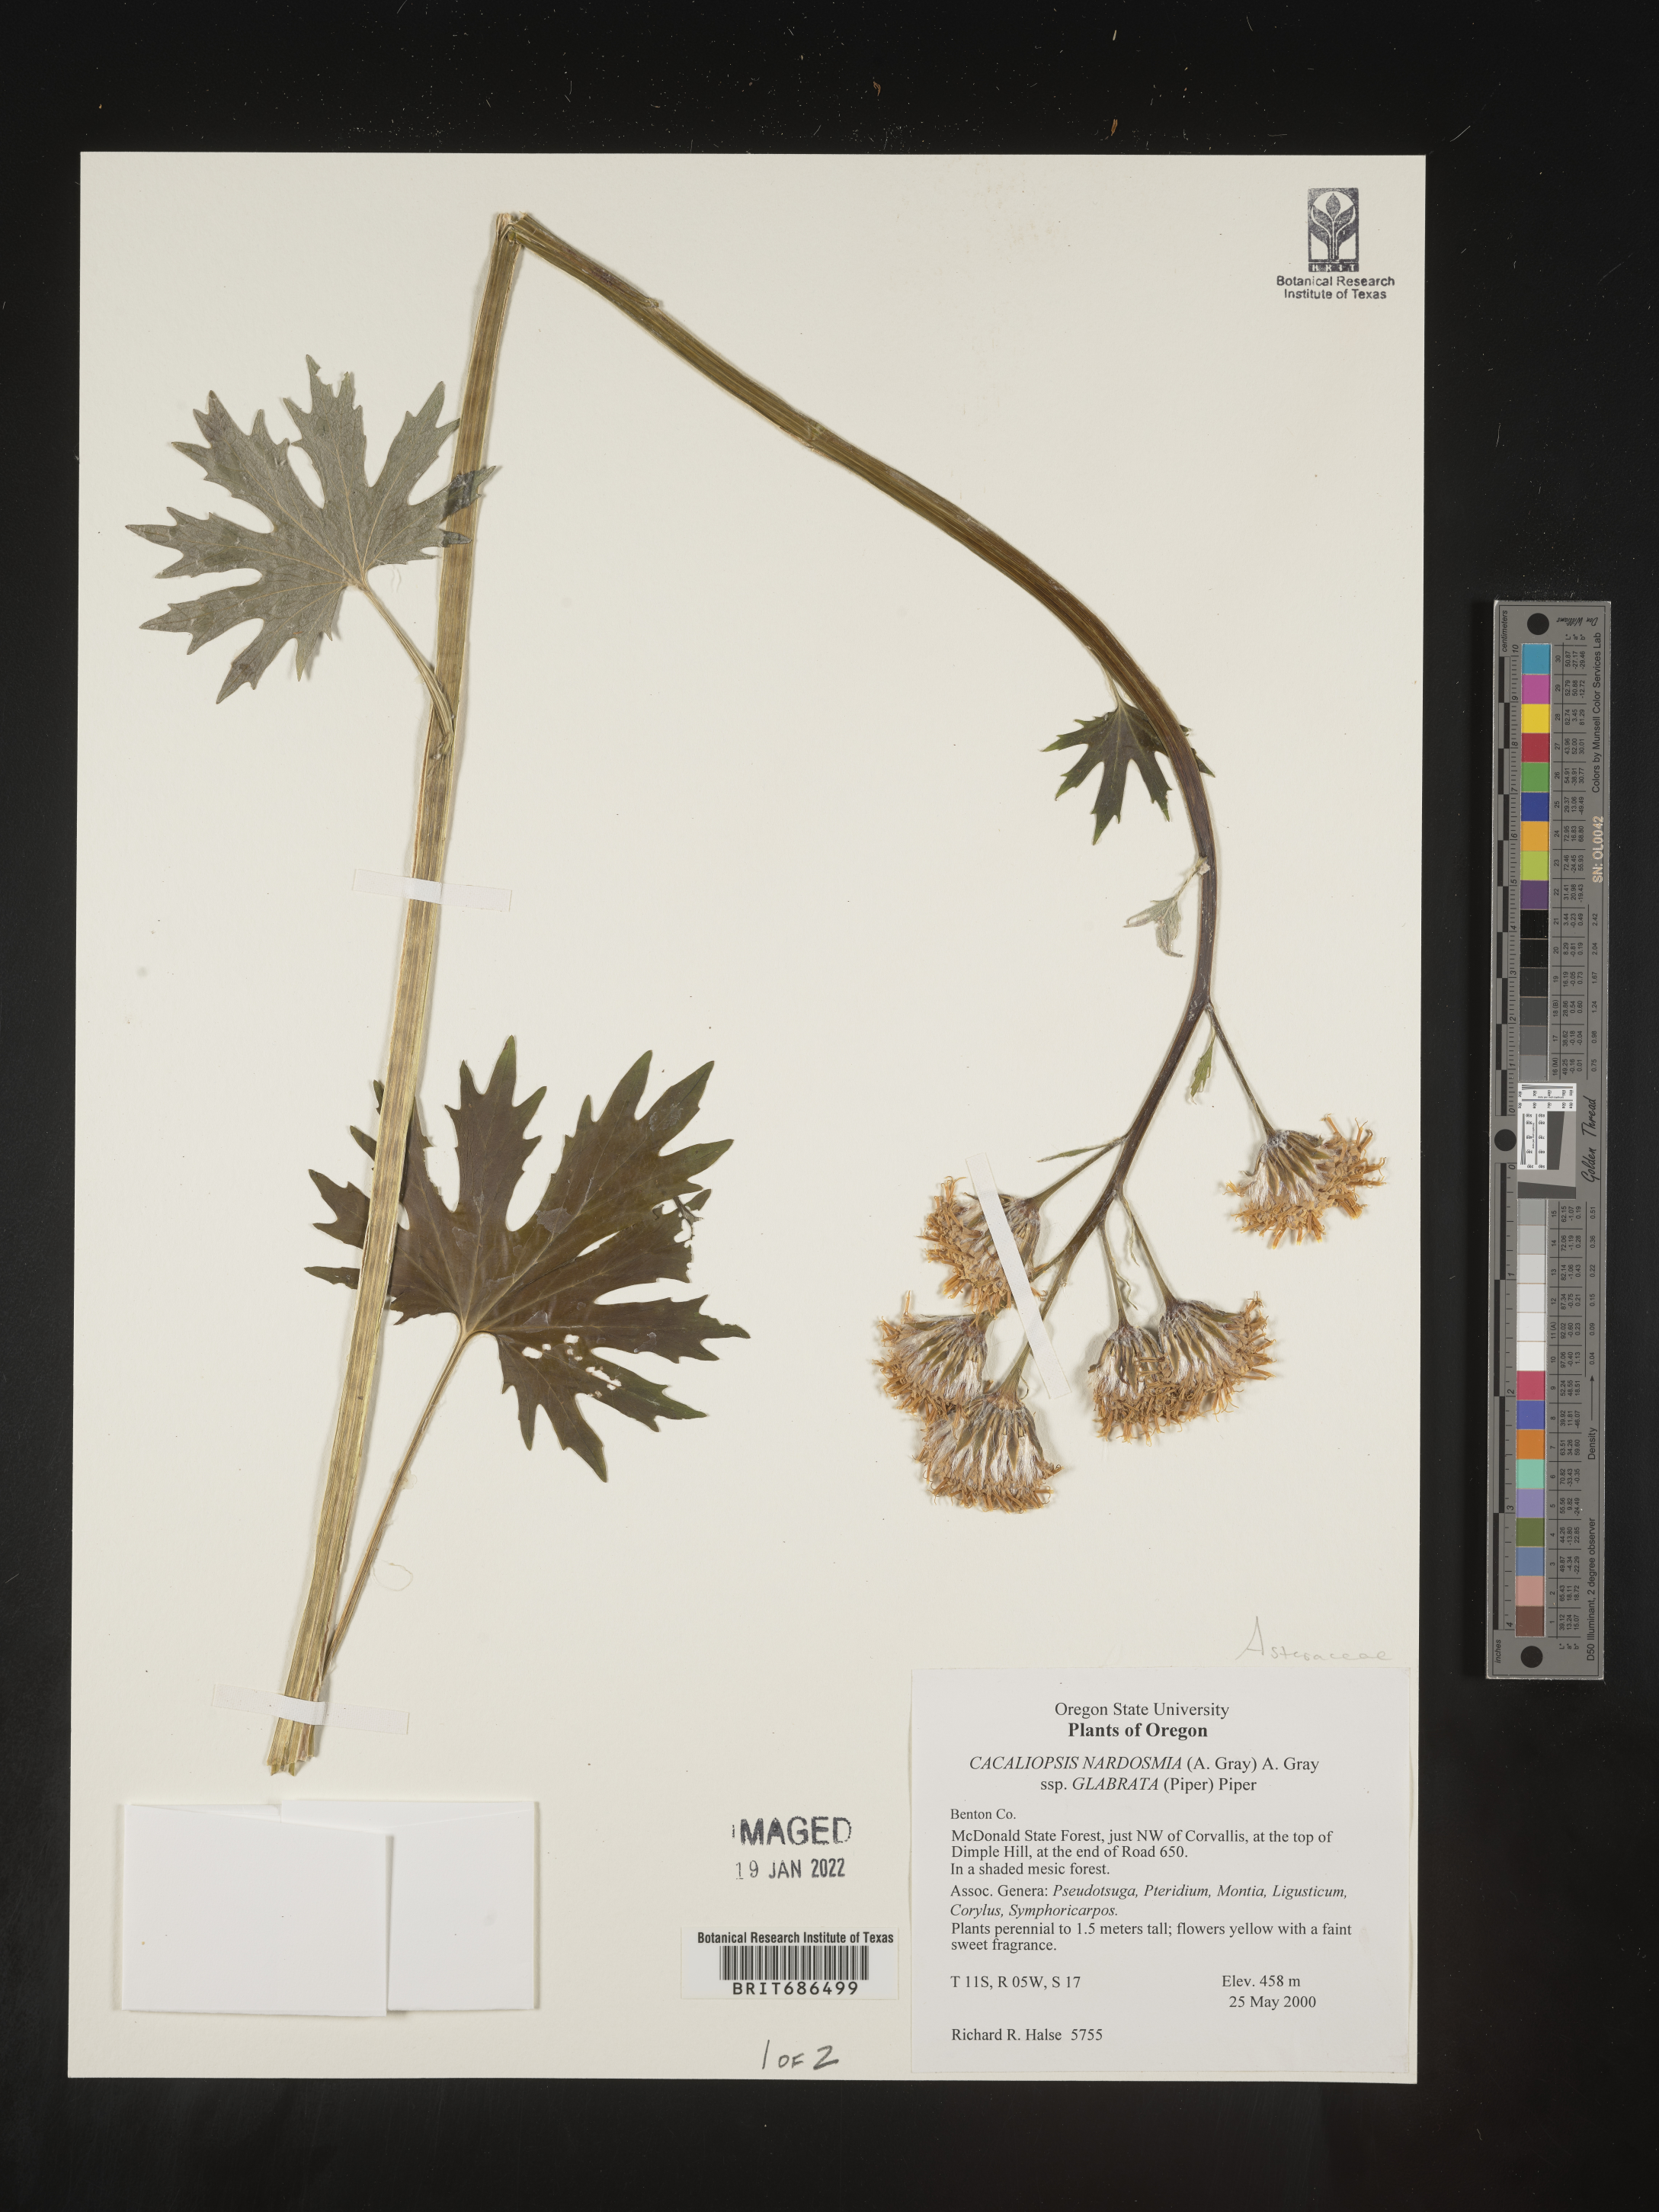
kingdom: Plantae
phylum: Tracheophyta
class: Magnoliopsida
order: Asterales
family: Asteraceae
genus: Cacaliopsis
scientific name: Cacaliopsis
